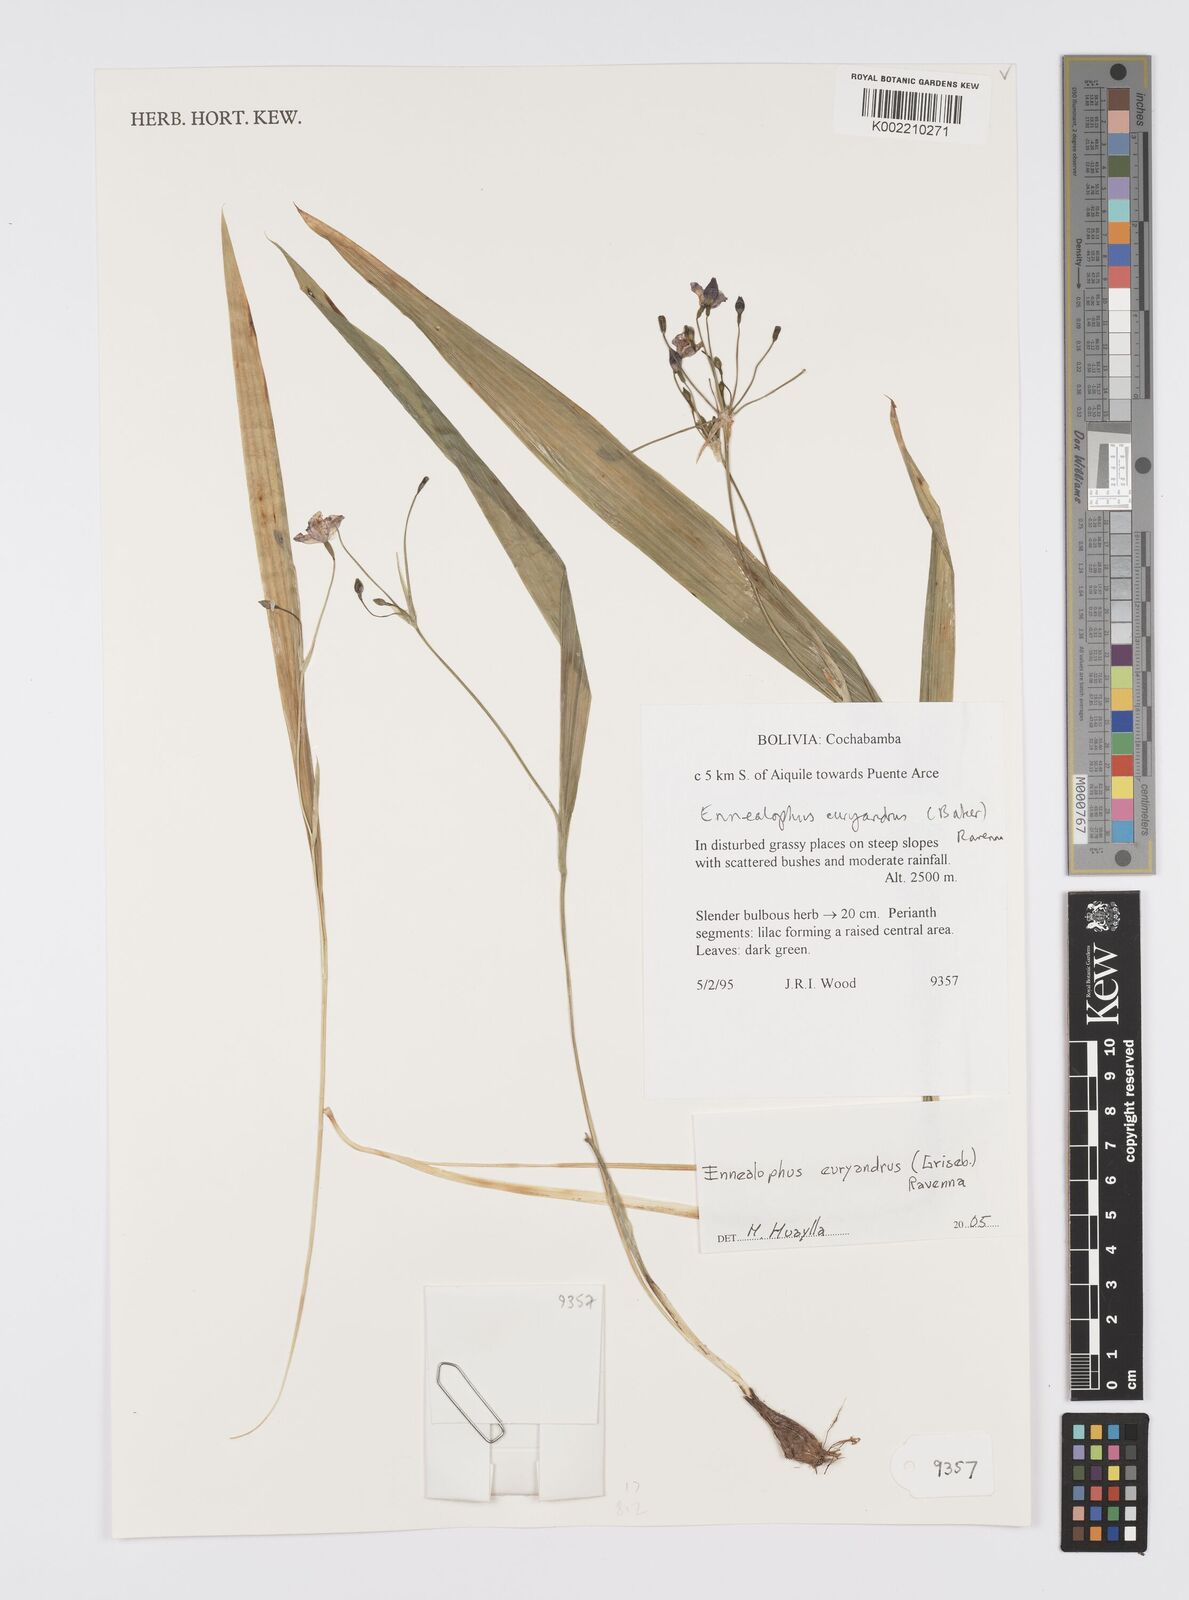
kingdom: Plantae
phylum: Tracheophyta
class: Liliopsida
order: Asparagales
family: Iridaceae
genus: Ennealophus
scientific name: Ennealophus euryandrus
